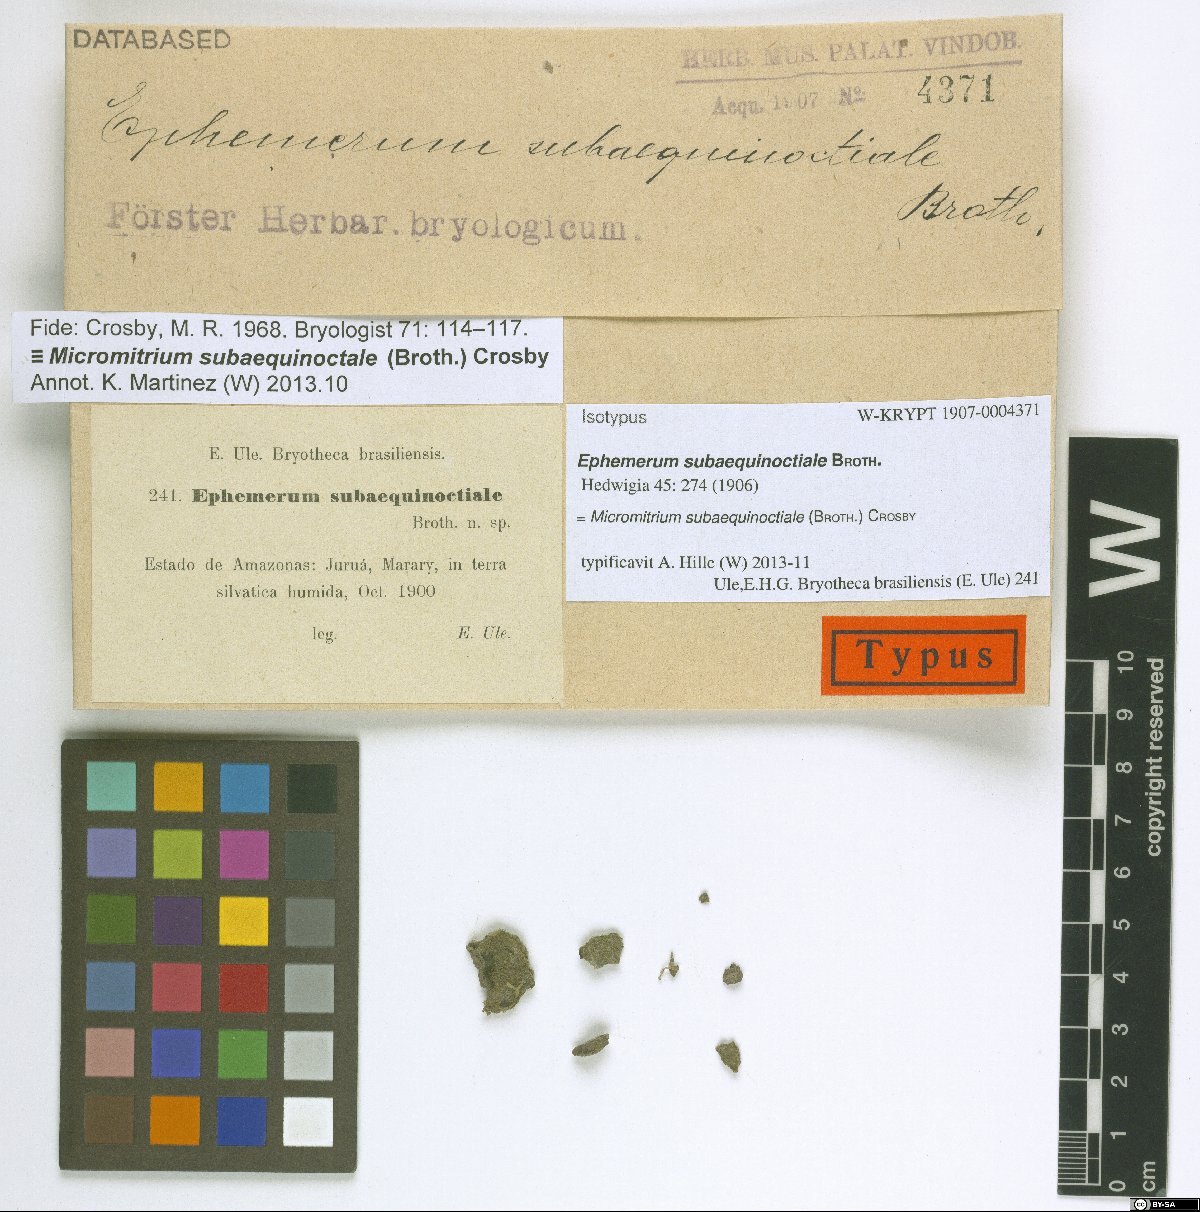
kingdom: Plantae
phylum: Bryophyta
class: Bryopsida
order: Dicranales
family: Micromitriaceae
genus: Micromitrium
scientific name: Micromitrium lacustre
